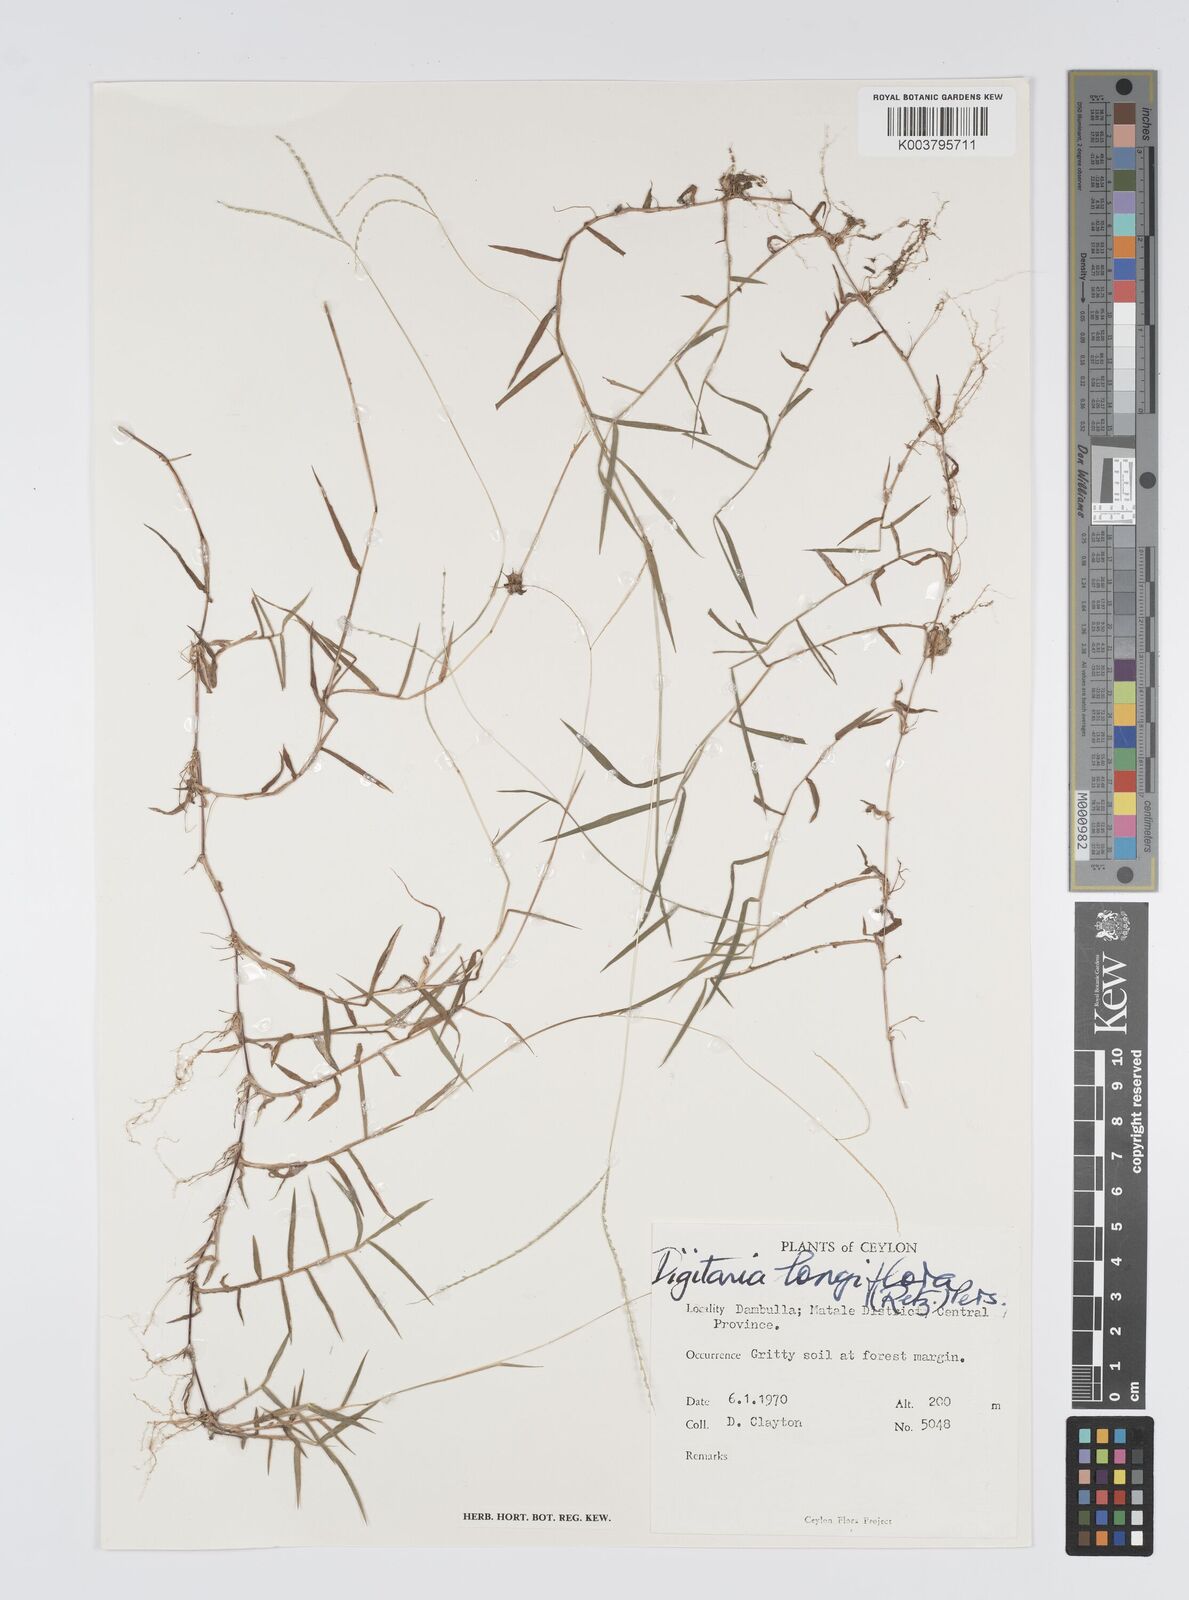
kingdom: Plantae
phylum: Tracheophyta
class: Liliopsida
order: Poales
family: Poaceae
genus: Digitaria
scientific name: Digitaria longiflora
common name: Wire crabgrass
